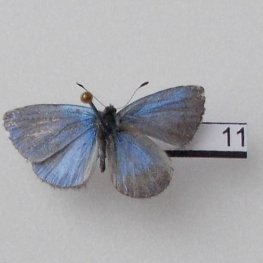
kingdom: Animalia
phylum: Arthropoda
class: Insecta
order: Lepidoptera
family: Lycaenidae
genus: Celastrina
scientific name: Celastrina lucia
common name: Northern Spring Azure
